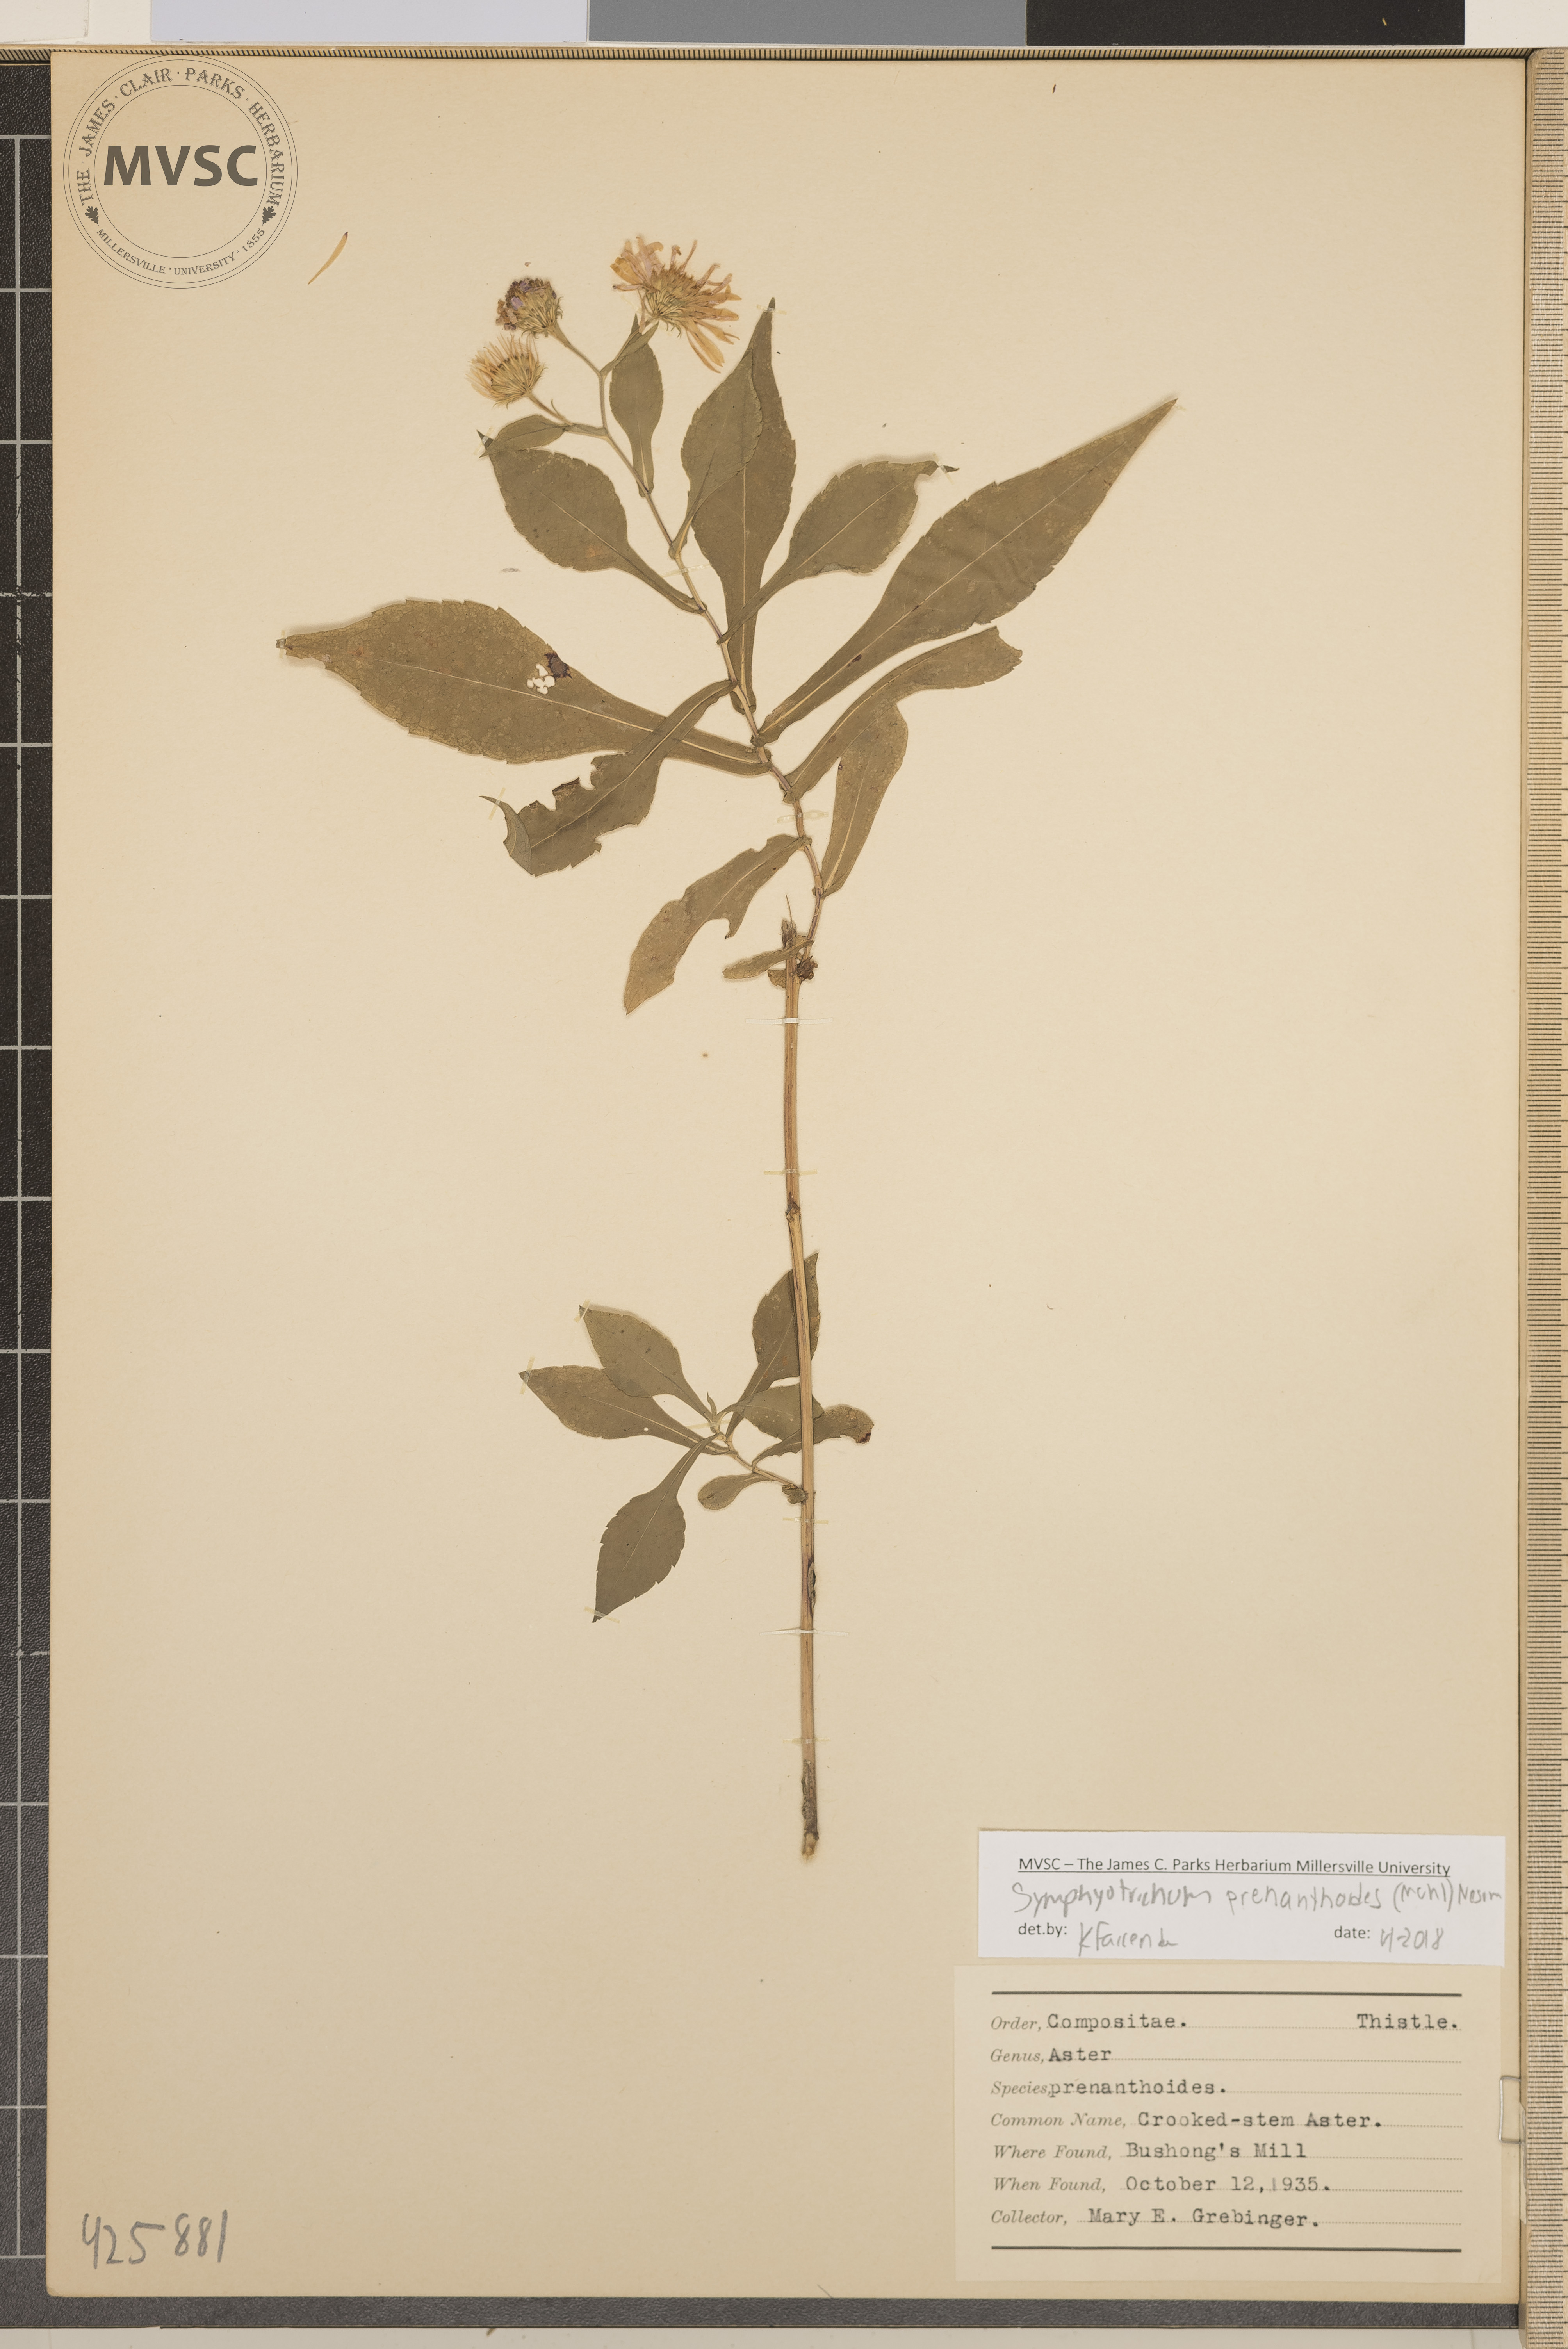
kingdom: Plantae
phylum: Tracheophyta
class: Magnoliopsida
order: Asterales
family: Asteraceae
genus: Symphyotrichum
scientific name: Symphyotrichum prenanthoides
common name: Crooked-stem Aster
